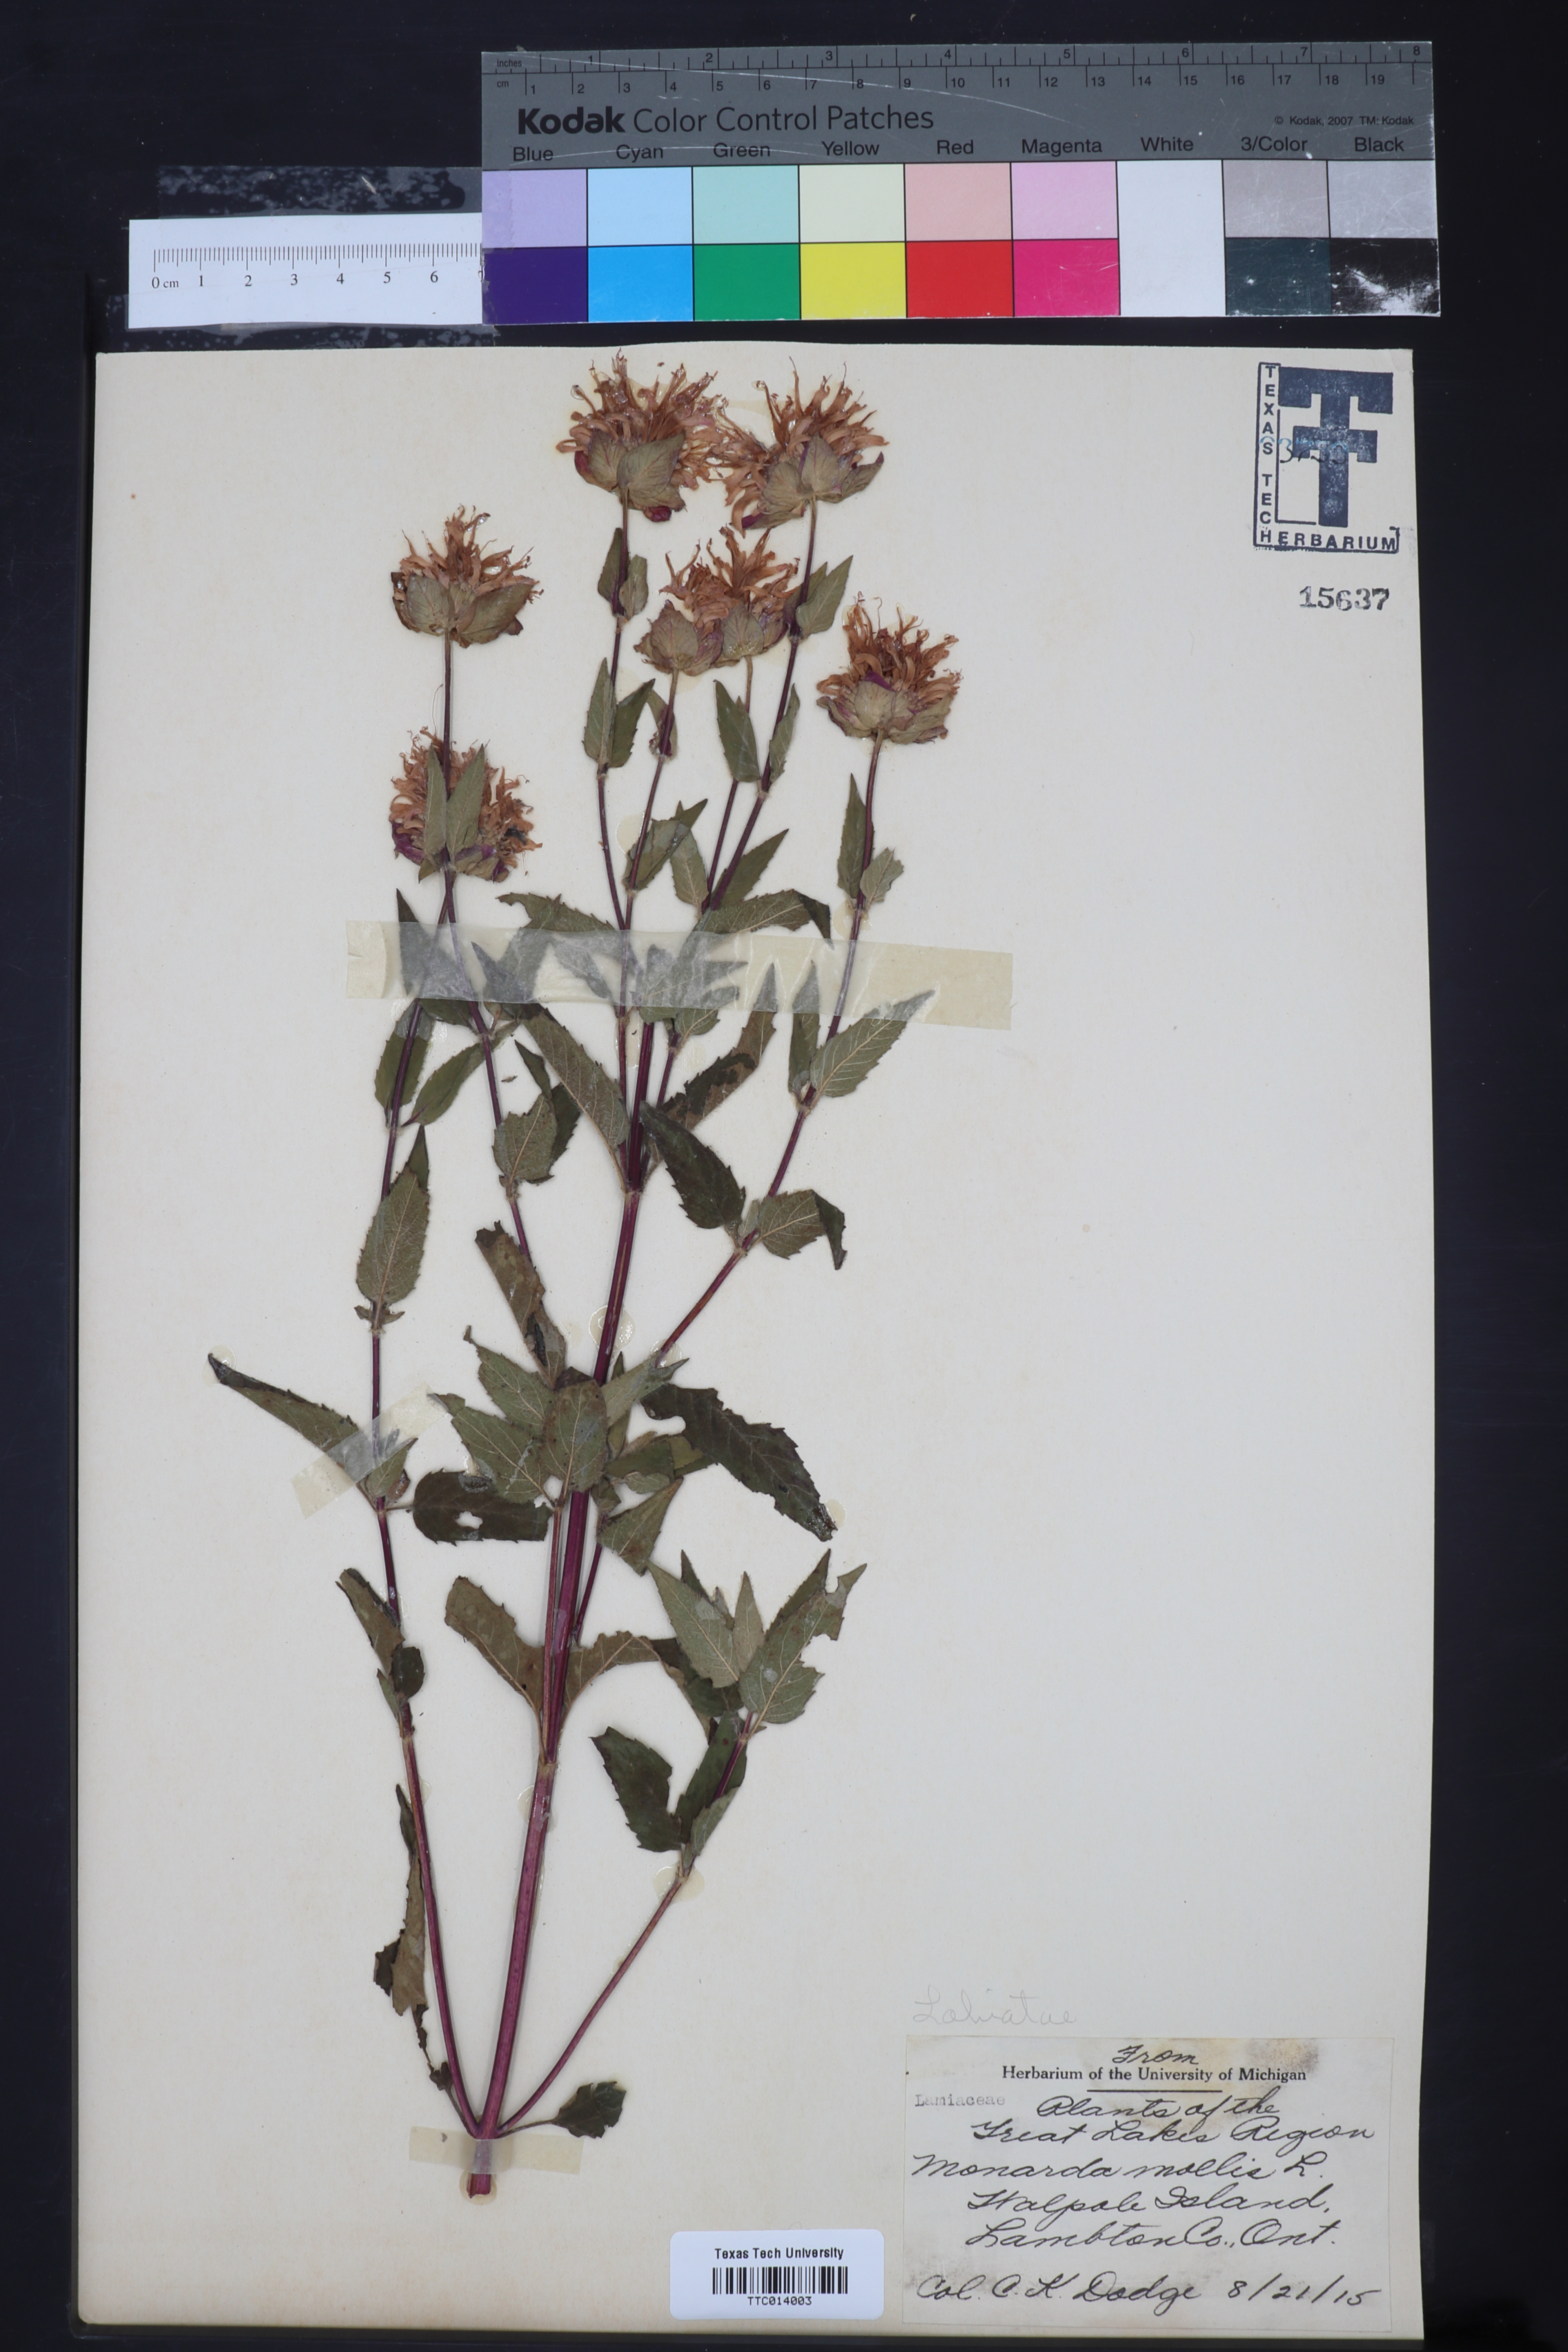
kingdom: Plantae
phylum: Tracheophyta
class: Magnoliopsida
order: Lamiales
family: Lamiaceae
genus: Monarda
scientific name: Monarda fistulosa
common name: Purple beebalm
